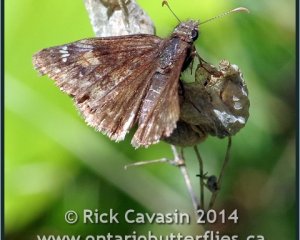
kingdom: Animalia
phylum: Arthropoda
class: Insecta
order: Lepidoptera
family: Hesperiidae
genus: Gesta
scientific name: Gesta
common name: Columbine Duskywing
